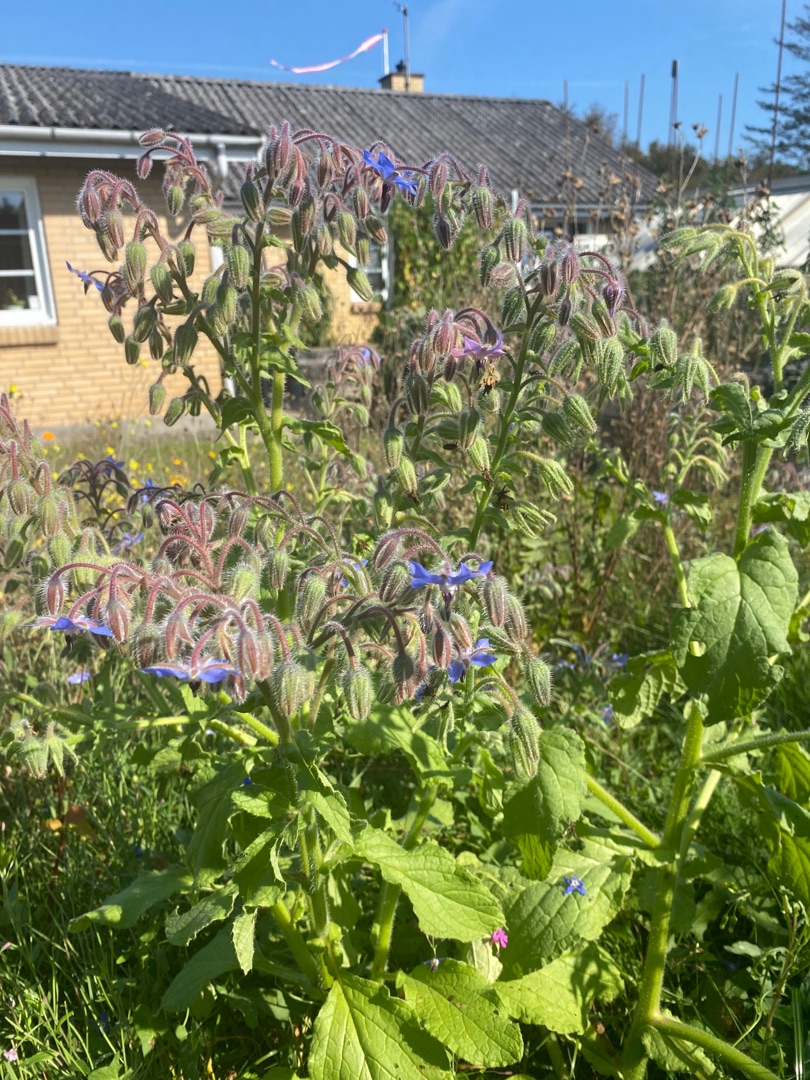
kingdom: Plantae
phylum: Tracheophyta
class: Magnoliopsida
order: Boraginales
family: Boraginaceae
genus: Borago
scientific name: Borago officinalis
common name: Hjulkrone
